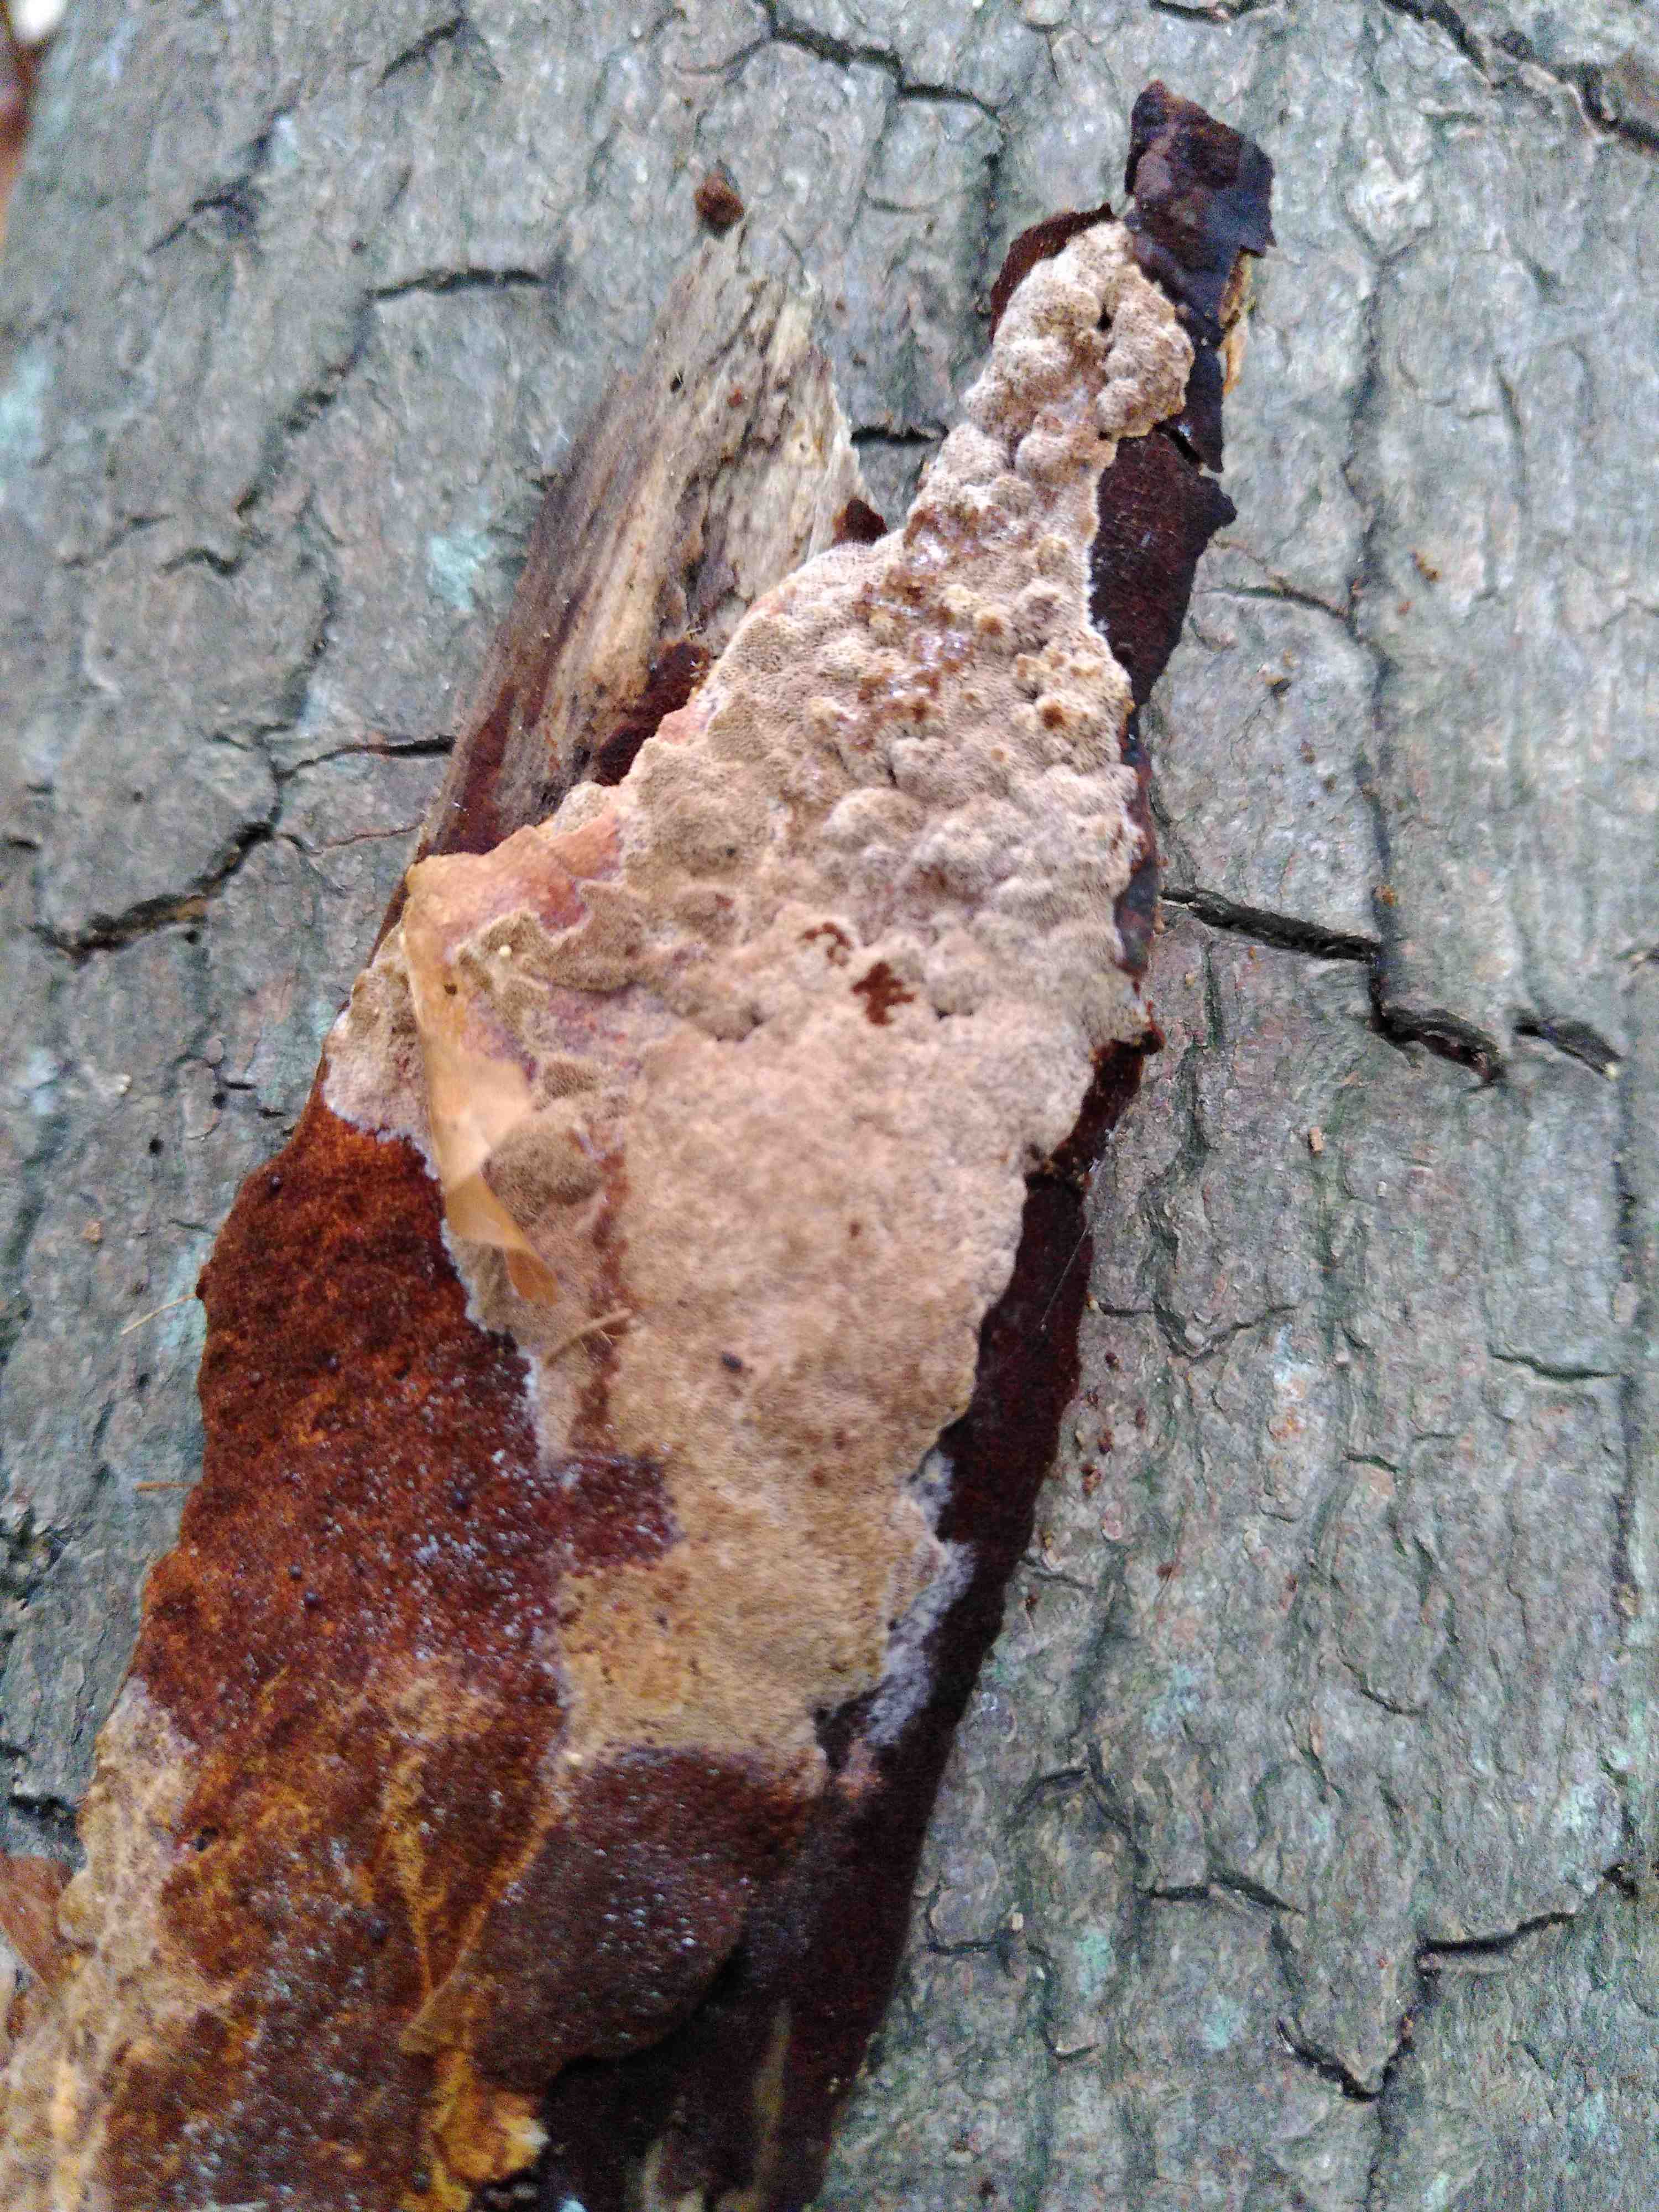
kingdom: Fungi
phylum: Basidiomycota
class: Agaricomycetes
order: Hymenochaetales
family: Hymenochaetaceae
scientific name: Hymenochaetaceae
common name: børstesvampfamilien
